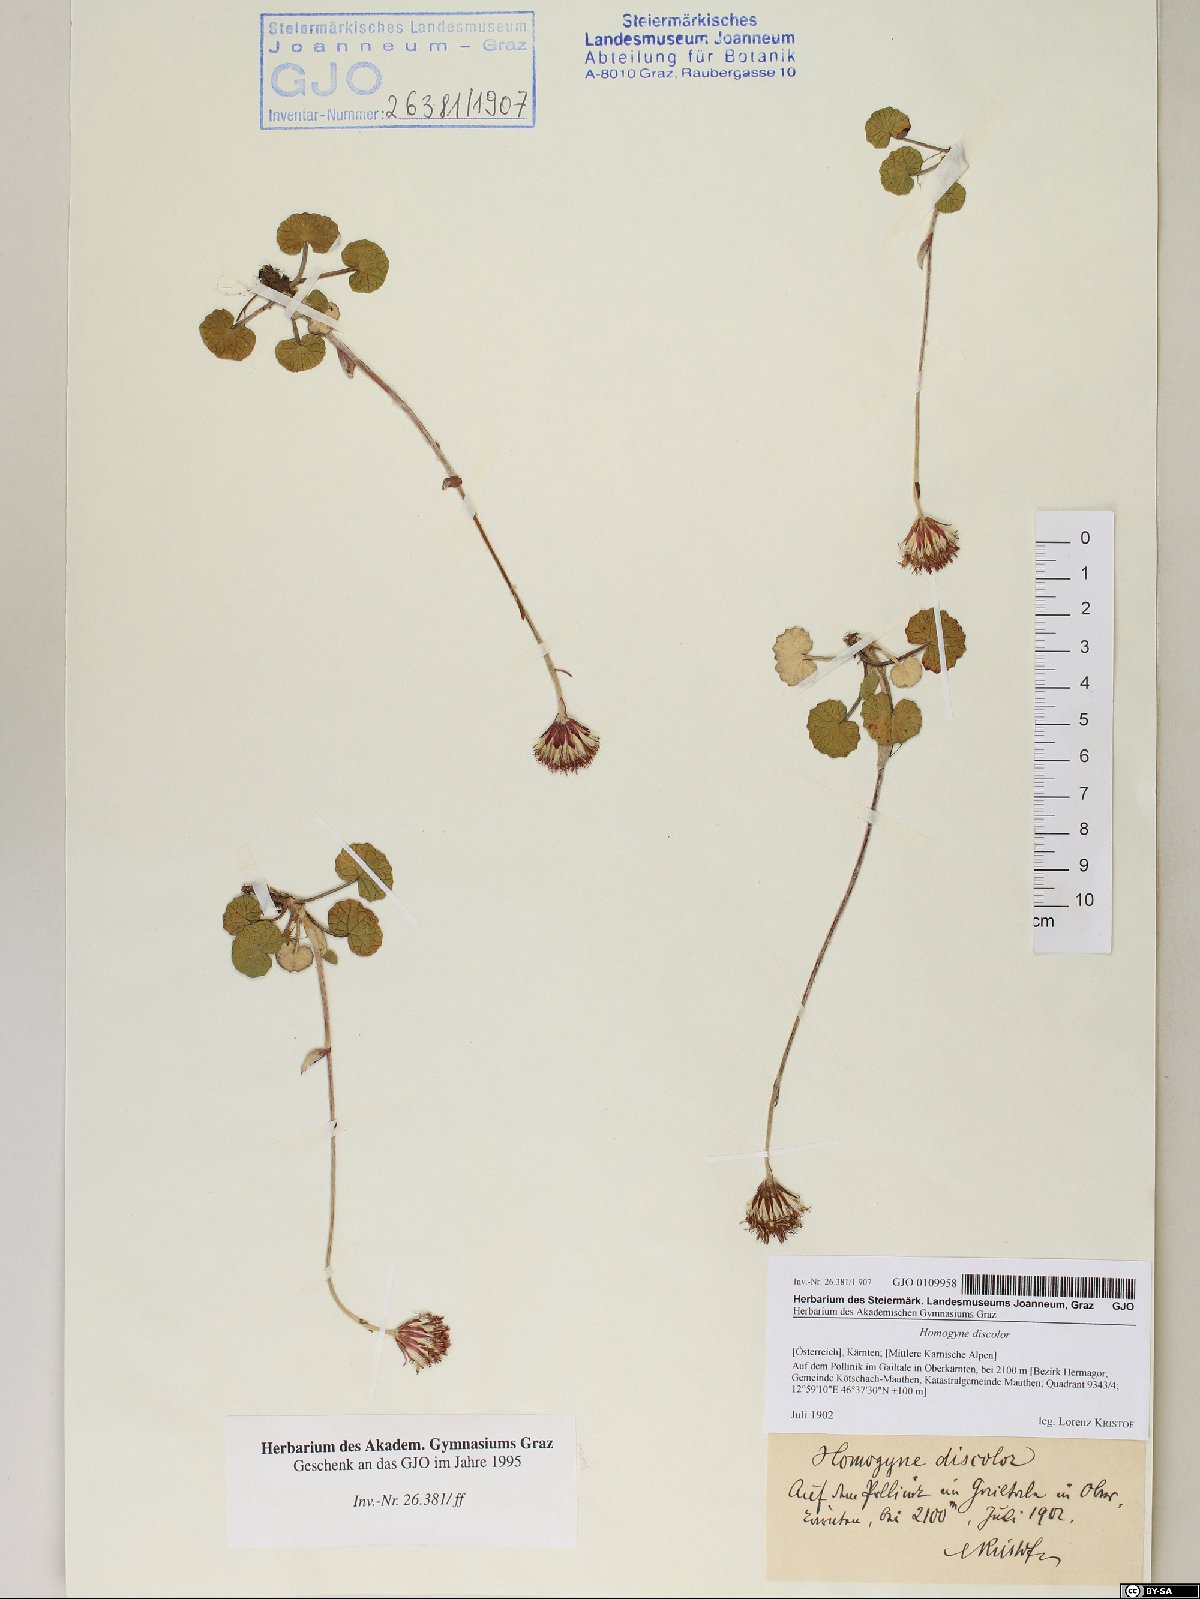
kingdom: Plantae
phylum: Tracheophyta
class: Magnoliopsida
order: Asterales
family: Asteraceae
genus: Homogyne
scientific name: Homogyne discolor
